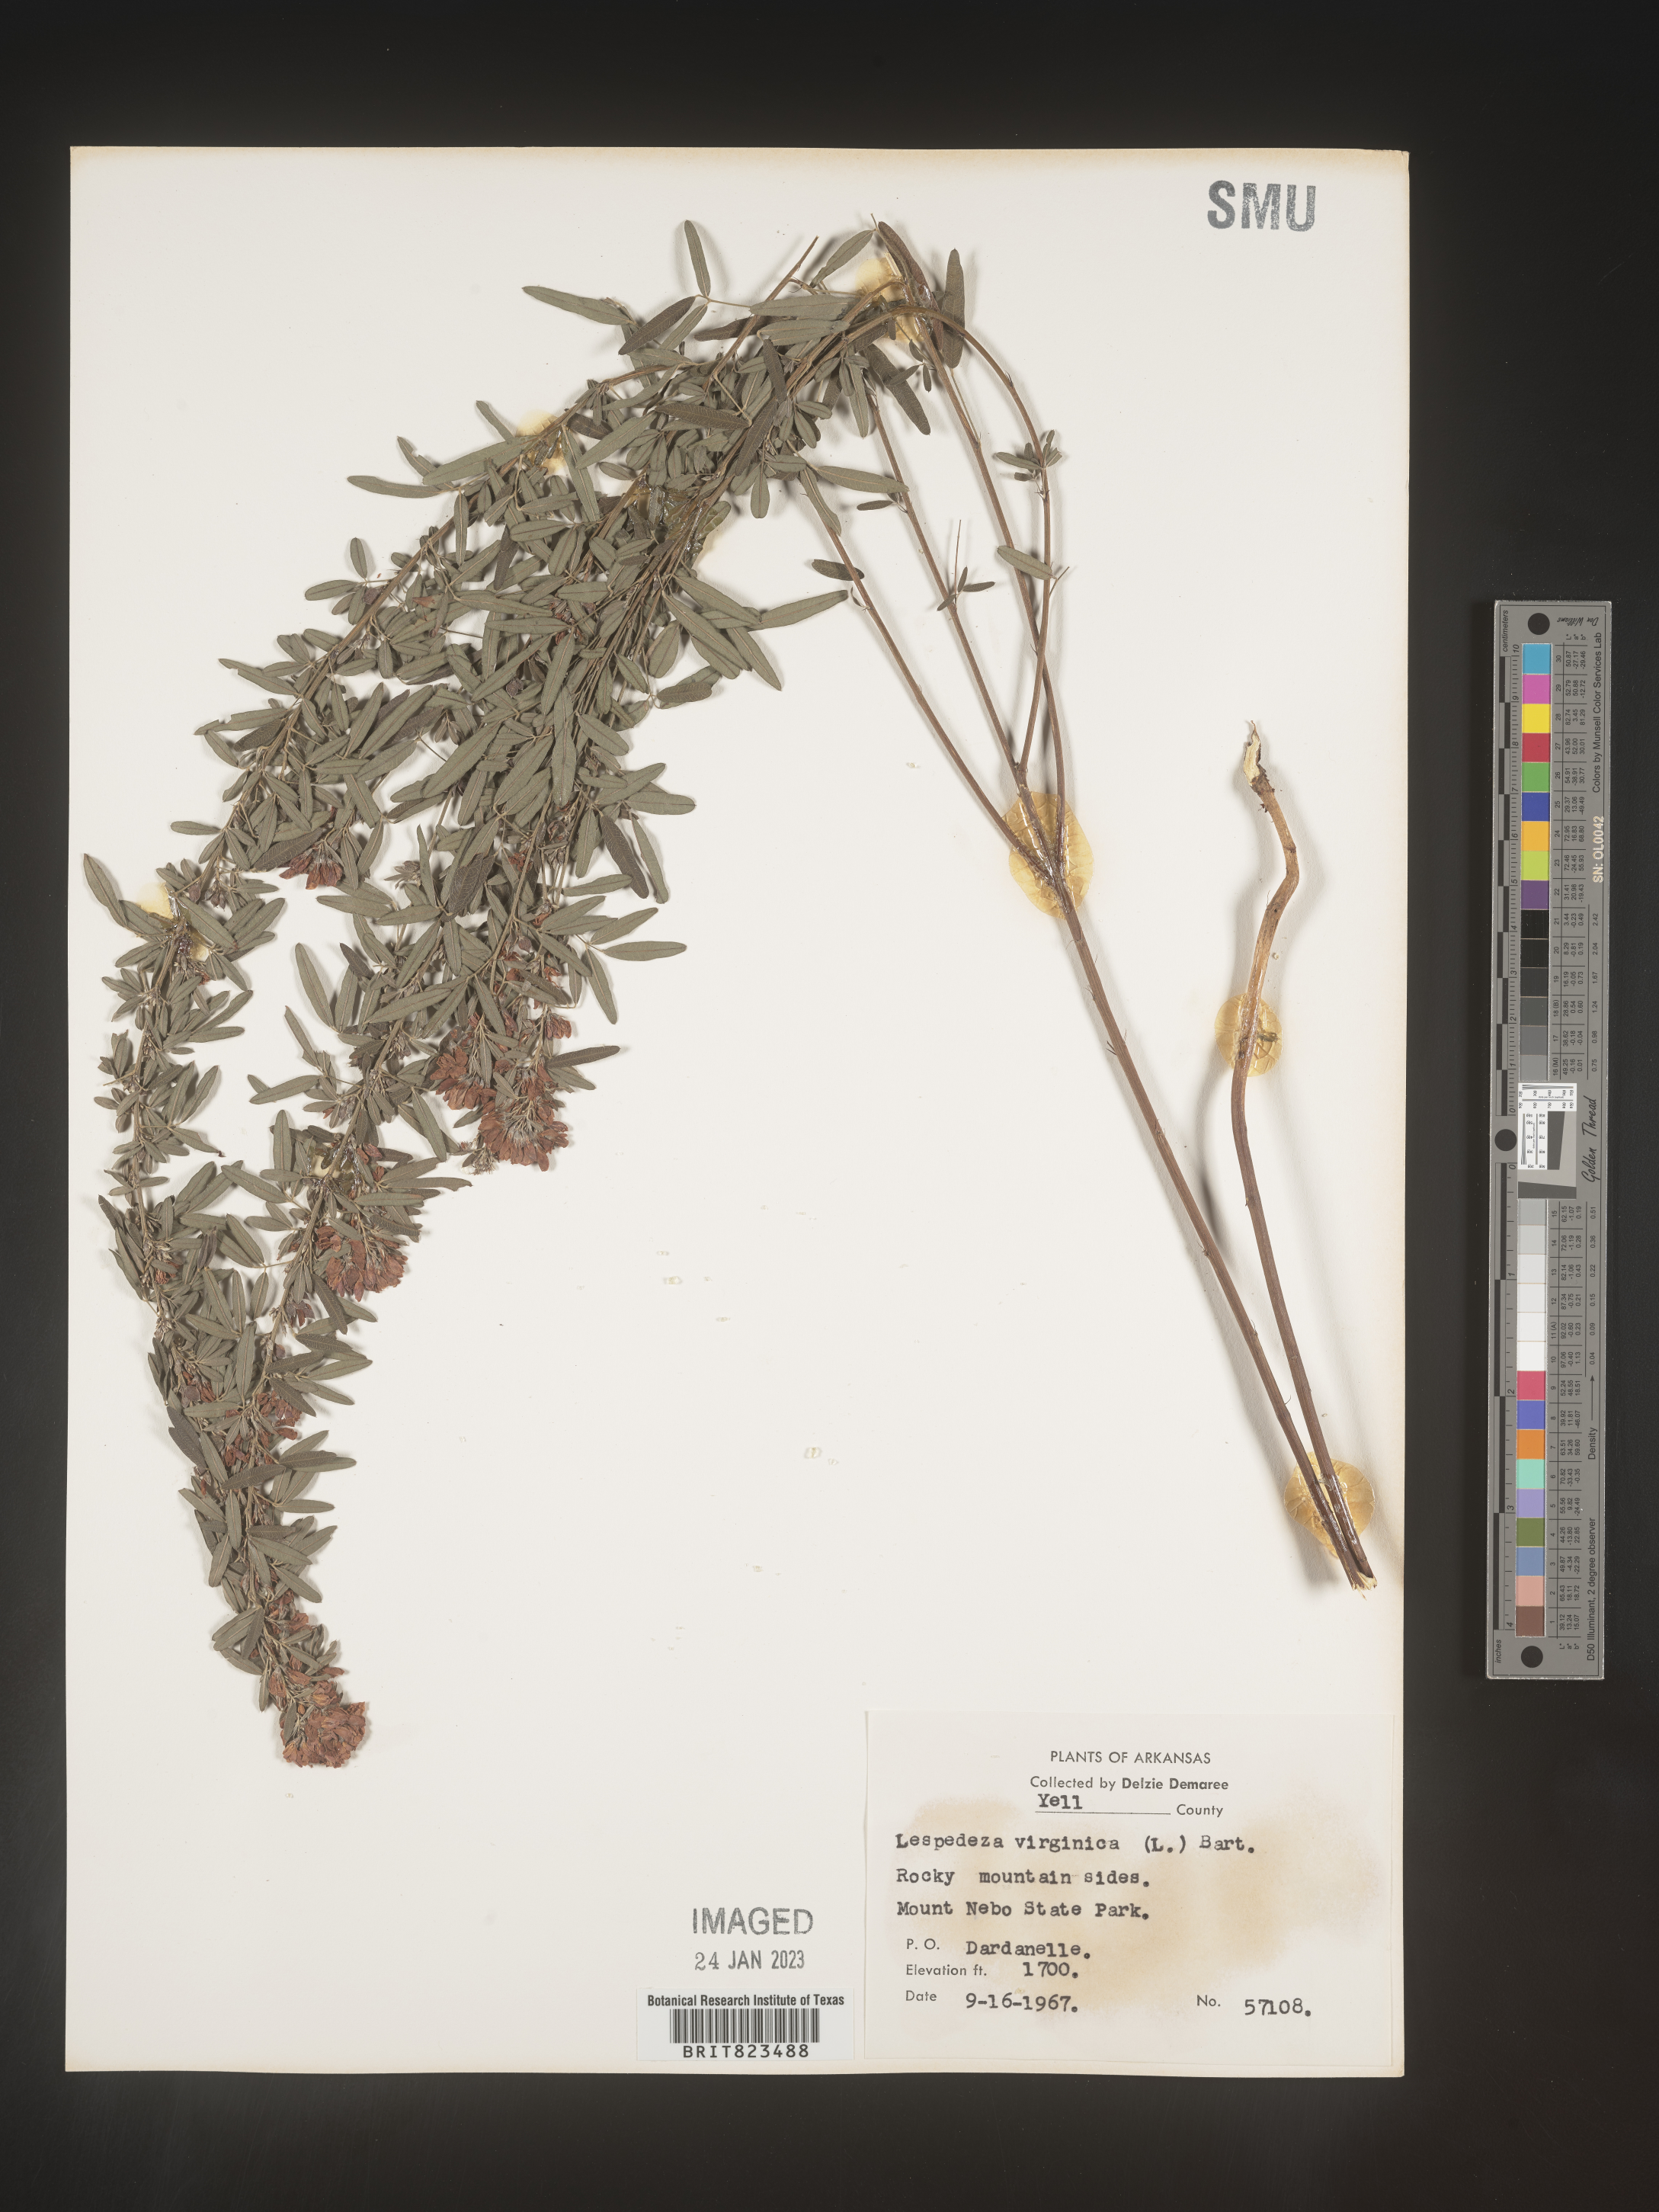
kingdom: Plantae
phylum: Tracheophyta
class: Magnoliopsida
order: Fabales
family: Fabaceae
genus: Lespedeza
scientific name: Lespedeza virginica
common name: Slender bush-clover
